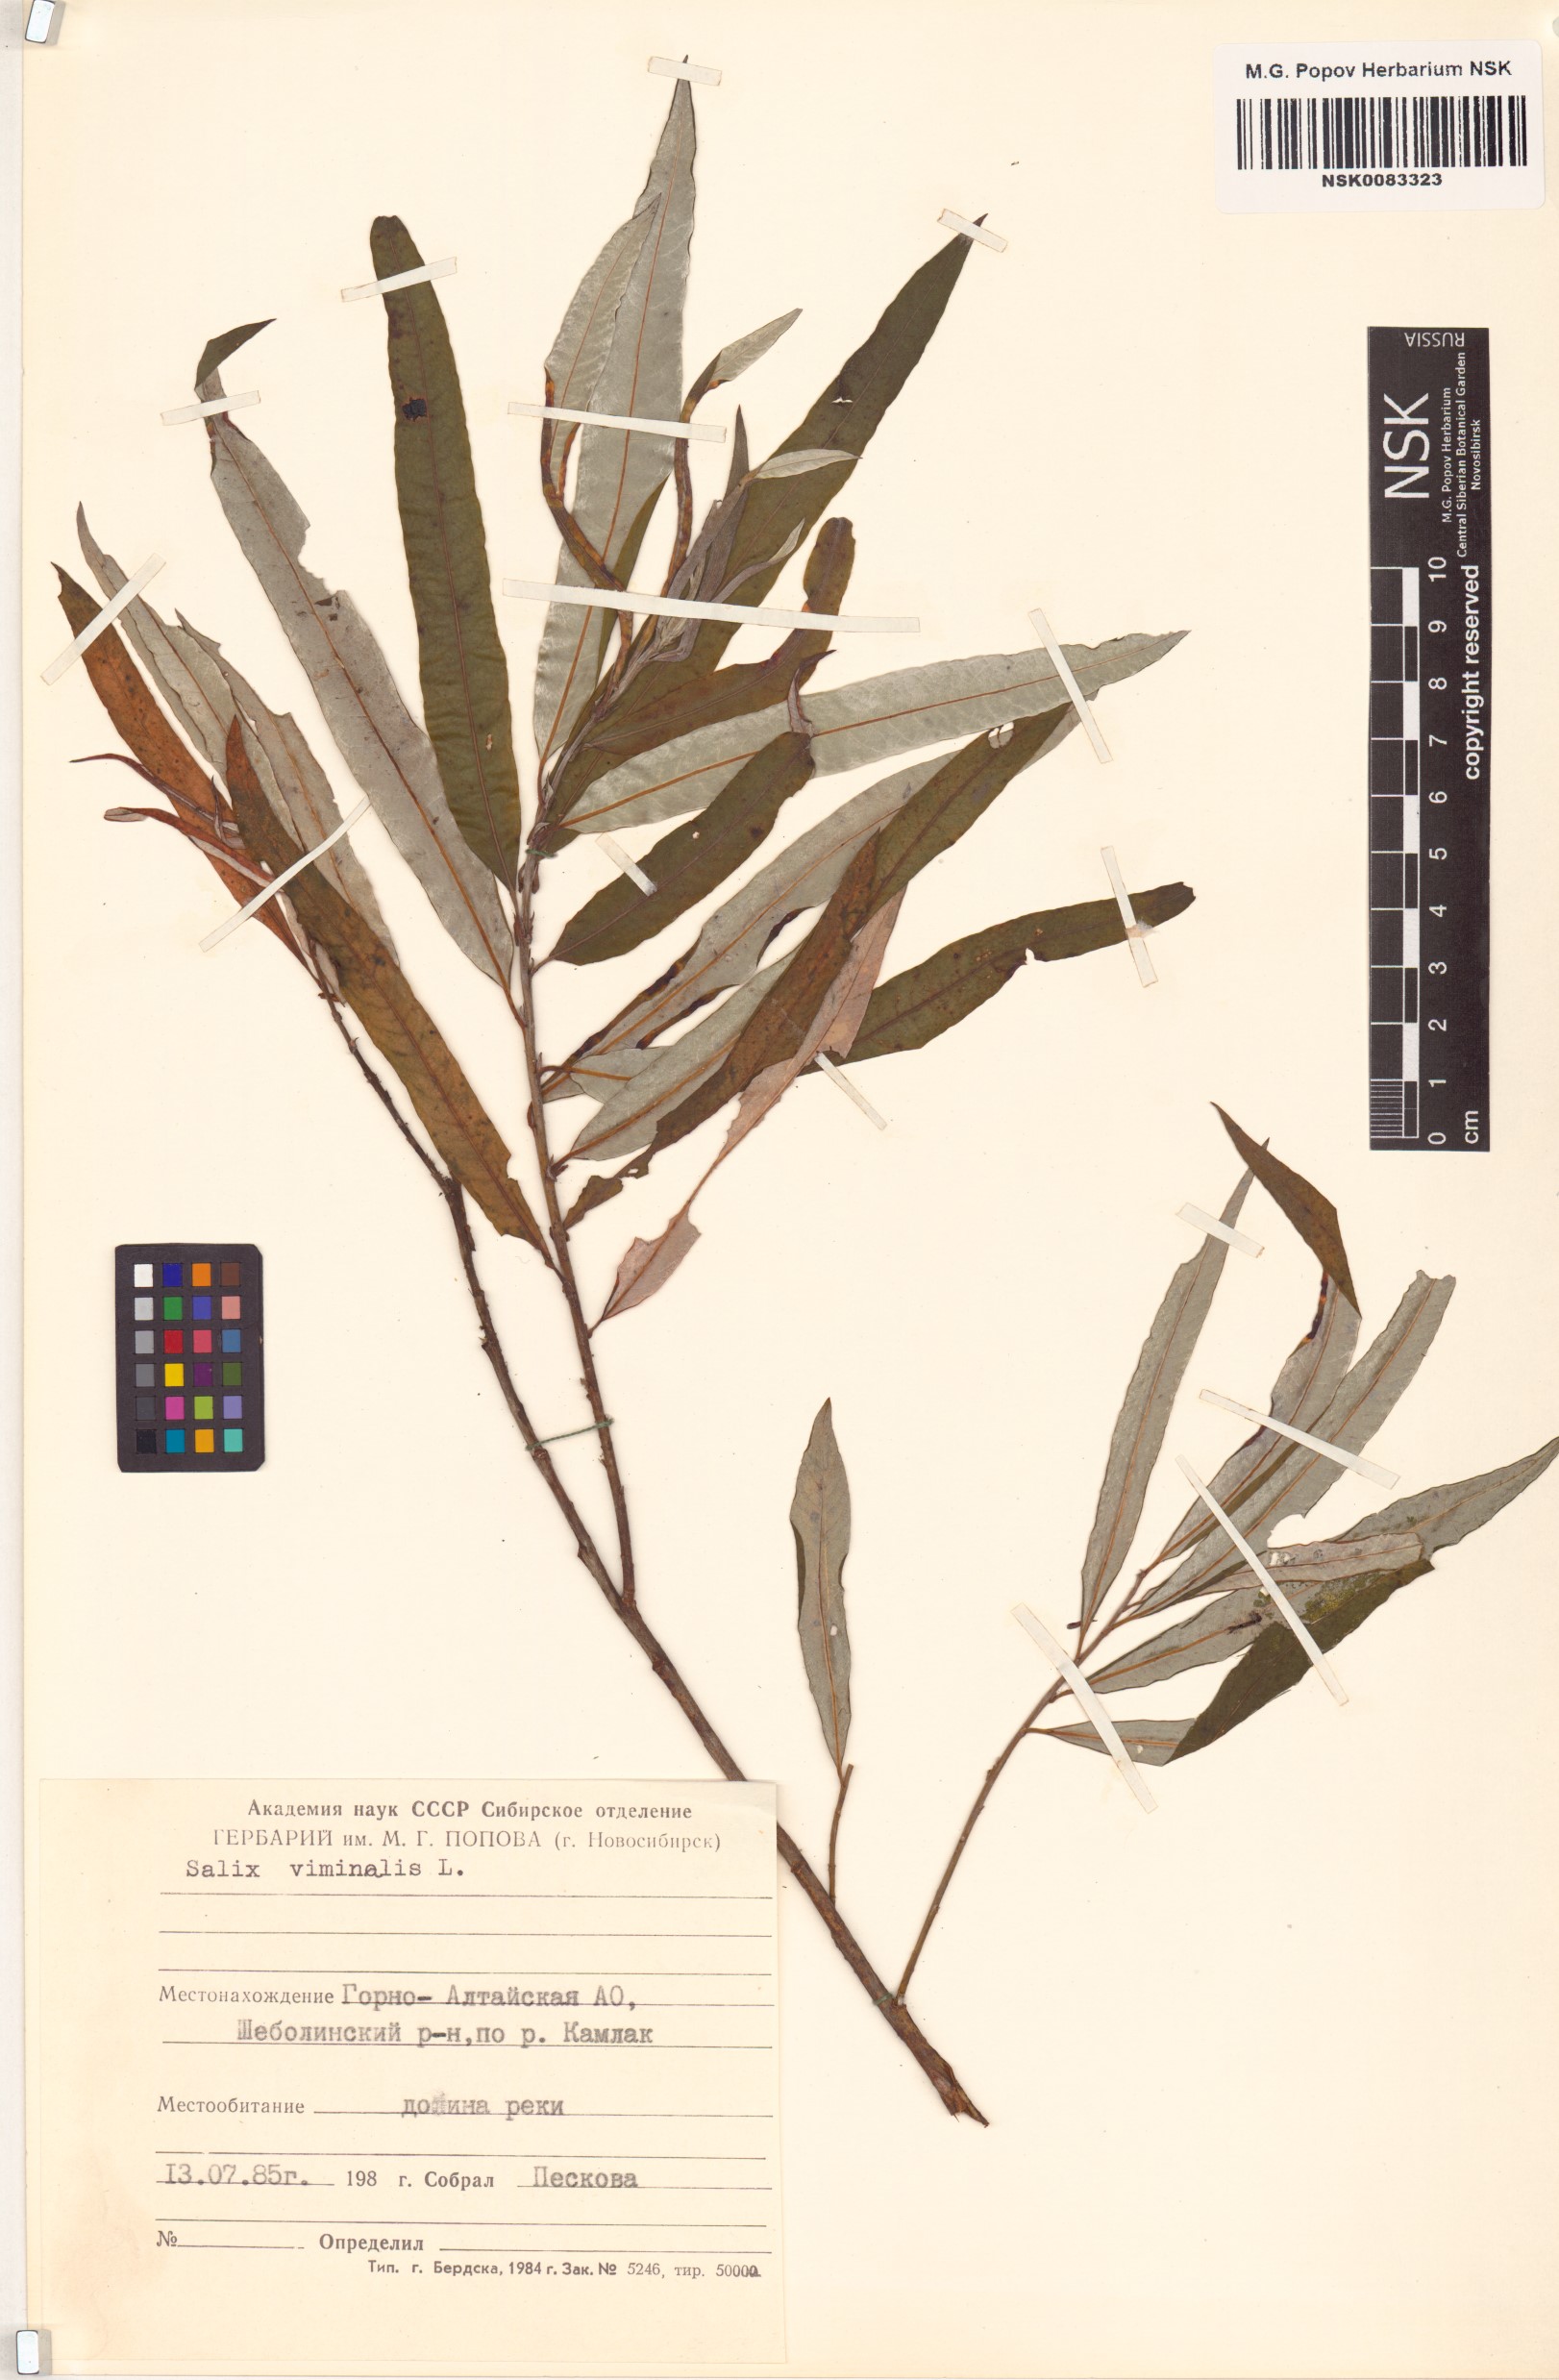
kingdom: Plantae
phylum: Tracheophyta
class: Magnoliopsida
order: Malpighiales
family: Salicaceae
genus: Salix
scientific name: Salix viminalis
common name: Osier
